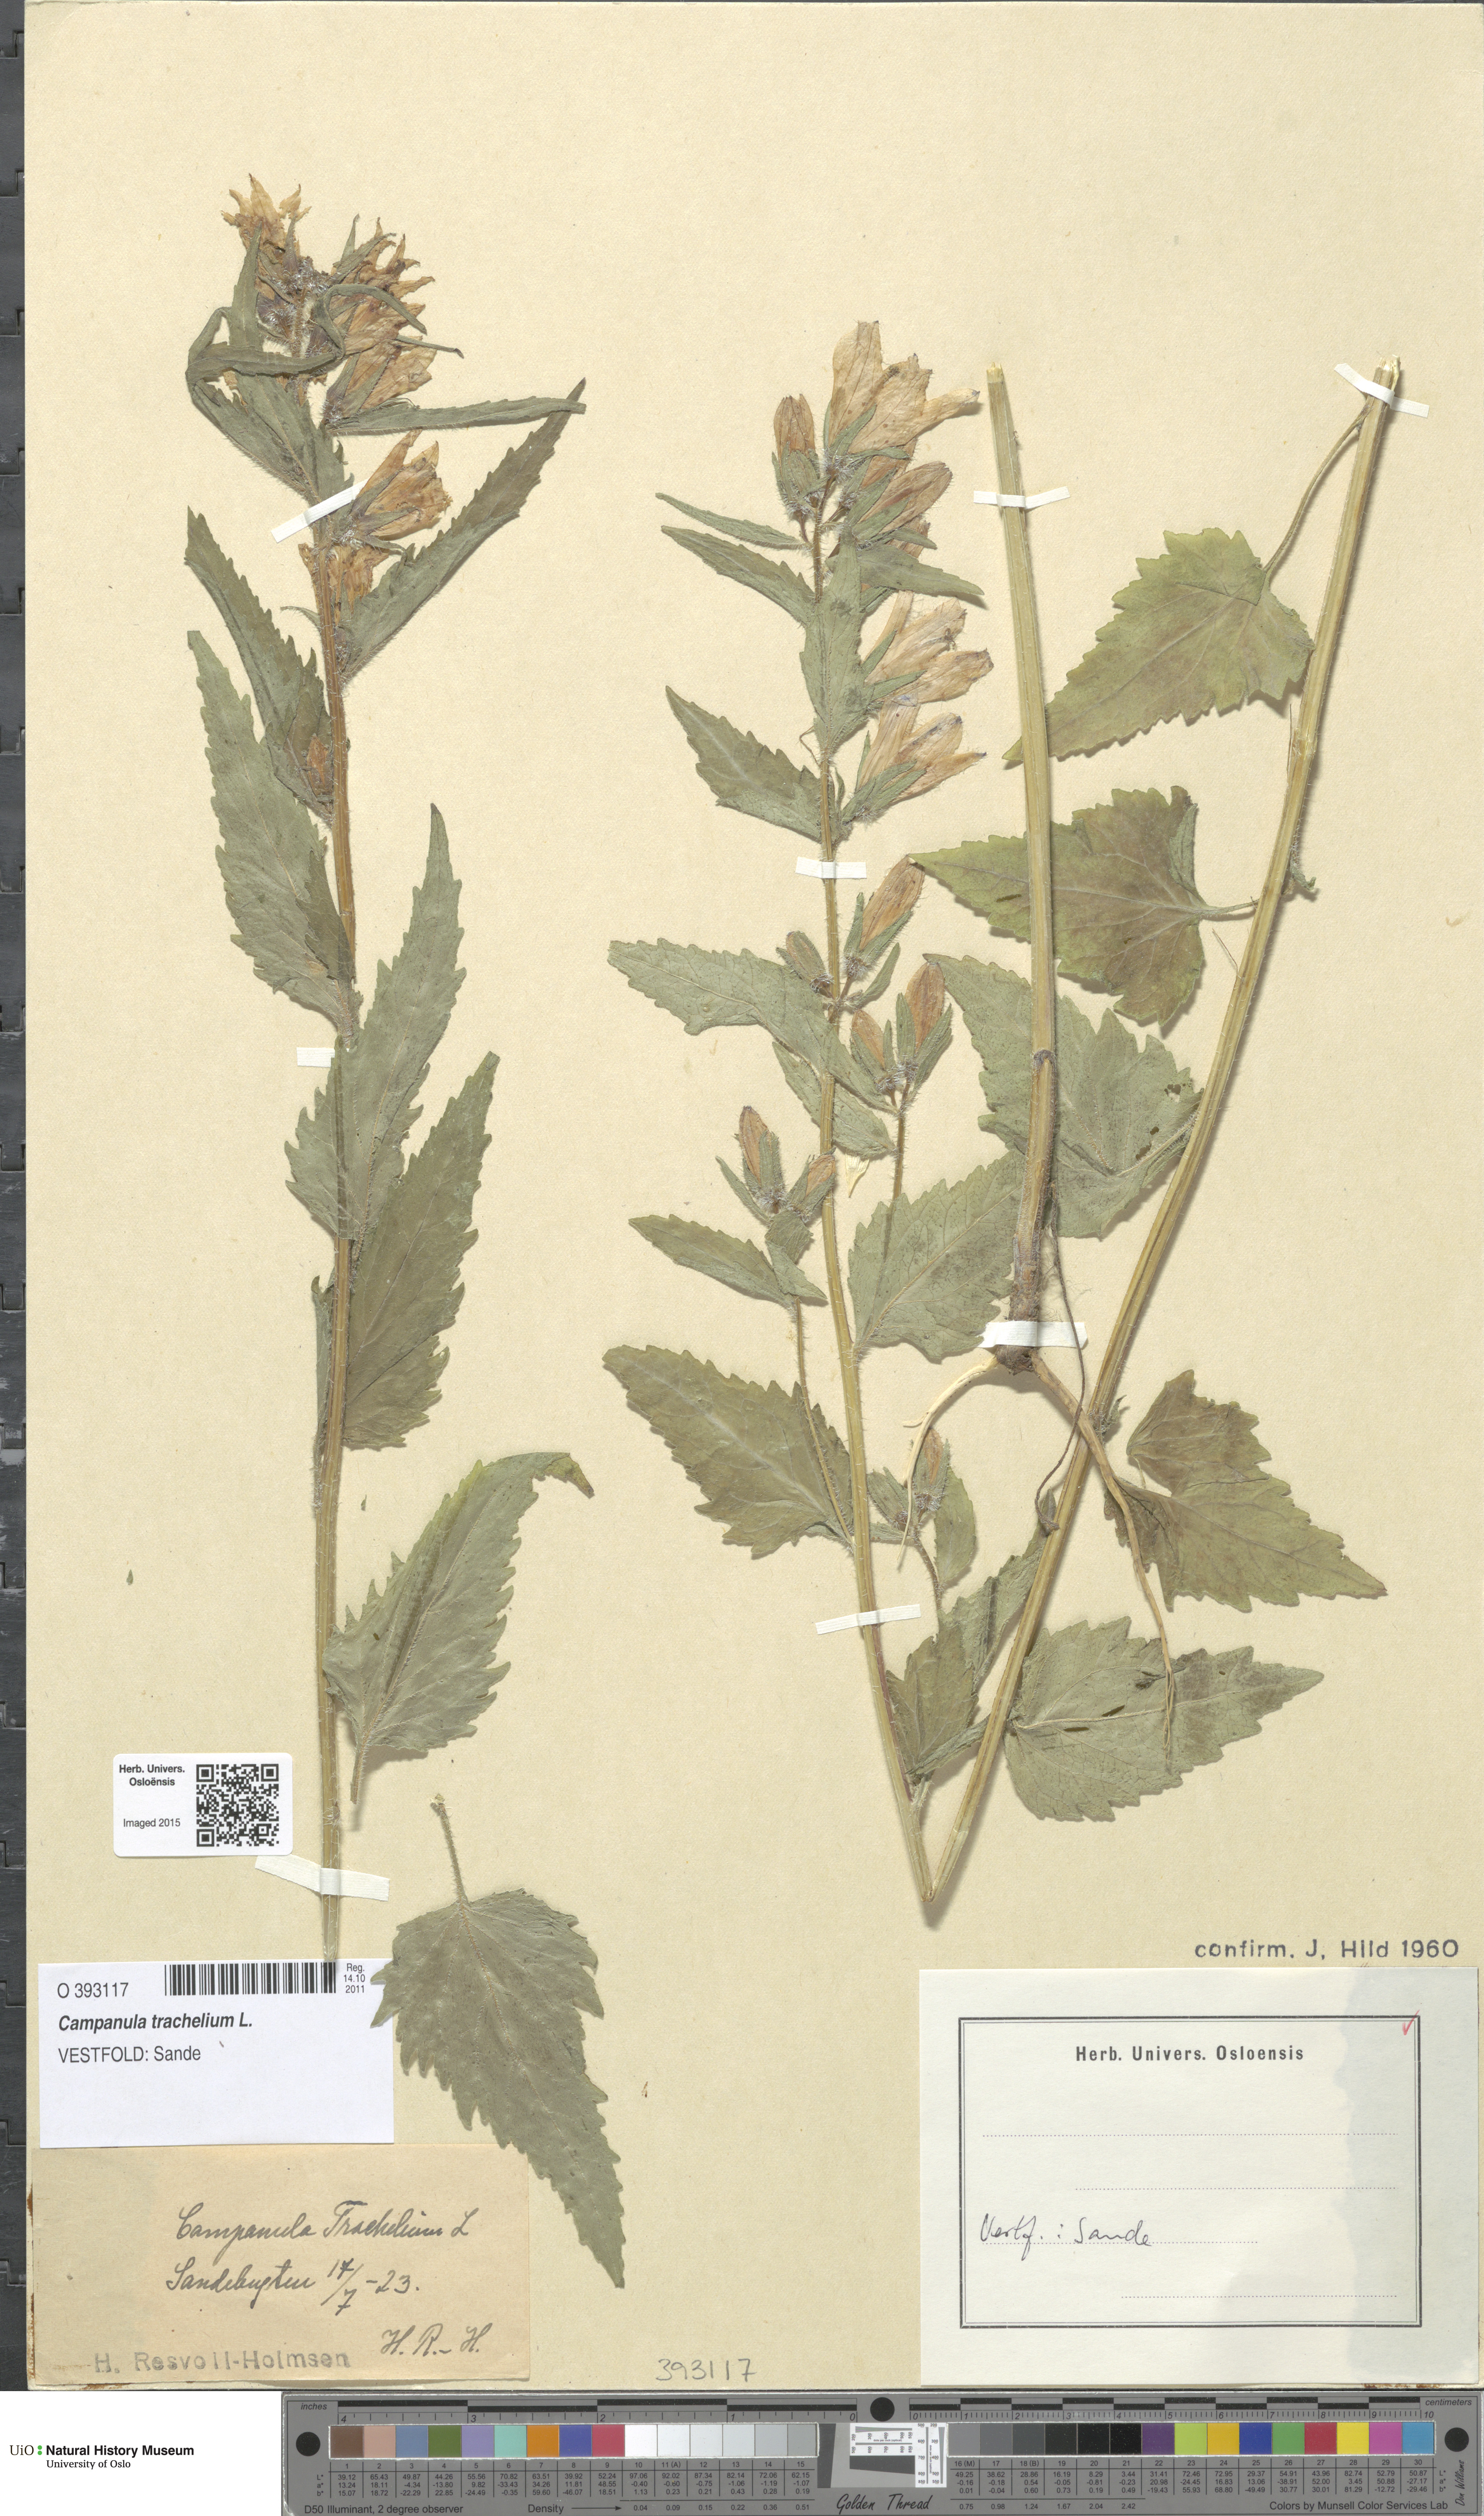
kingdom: Plantae
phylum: Tracheophyta
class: Magnoliopsida
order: Asterales
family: Campanulaceae
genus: Campanula
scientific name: Campanula trachelium
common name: Nettle-leaved bellflower
